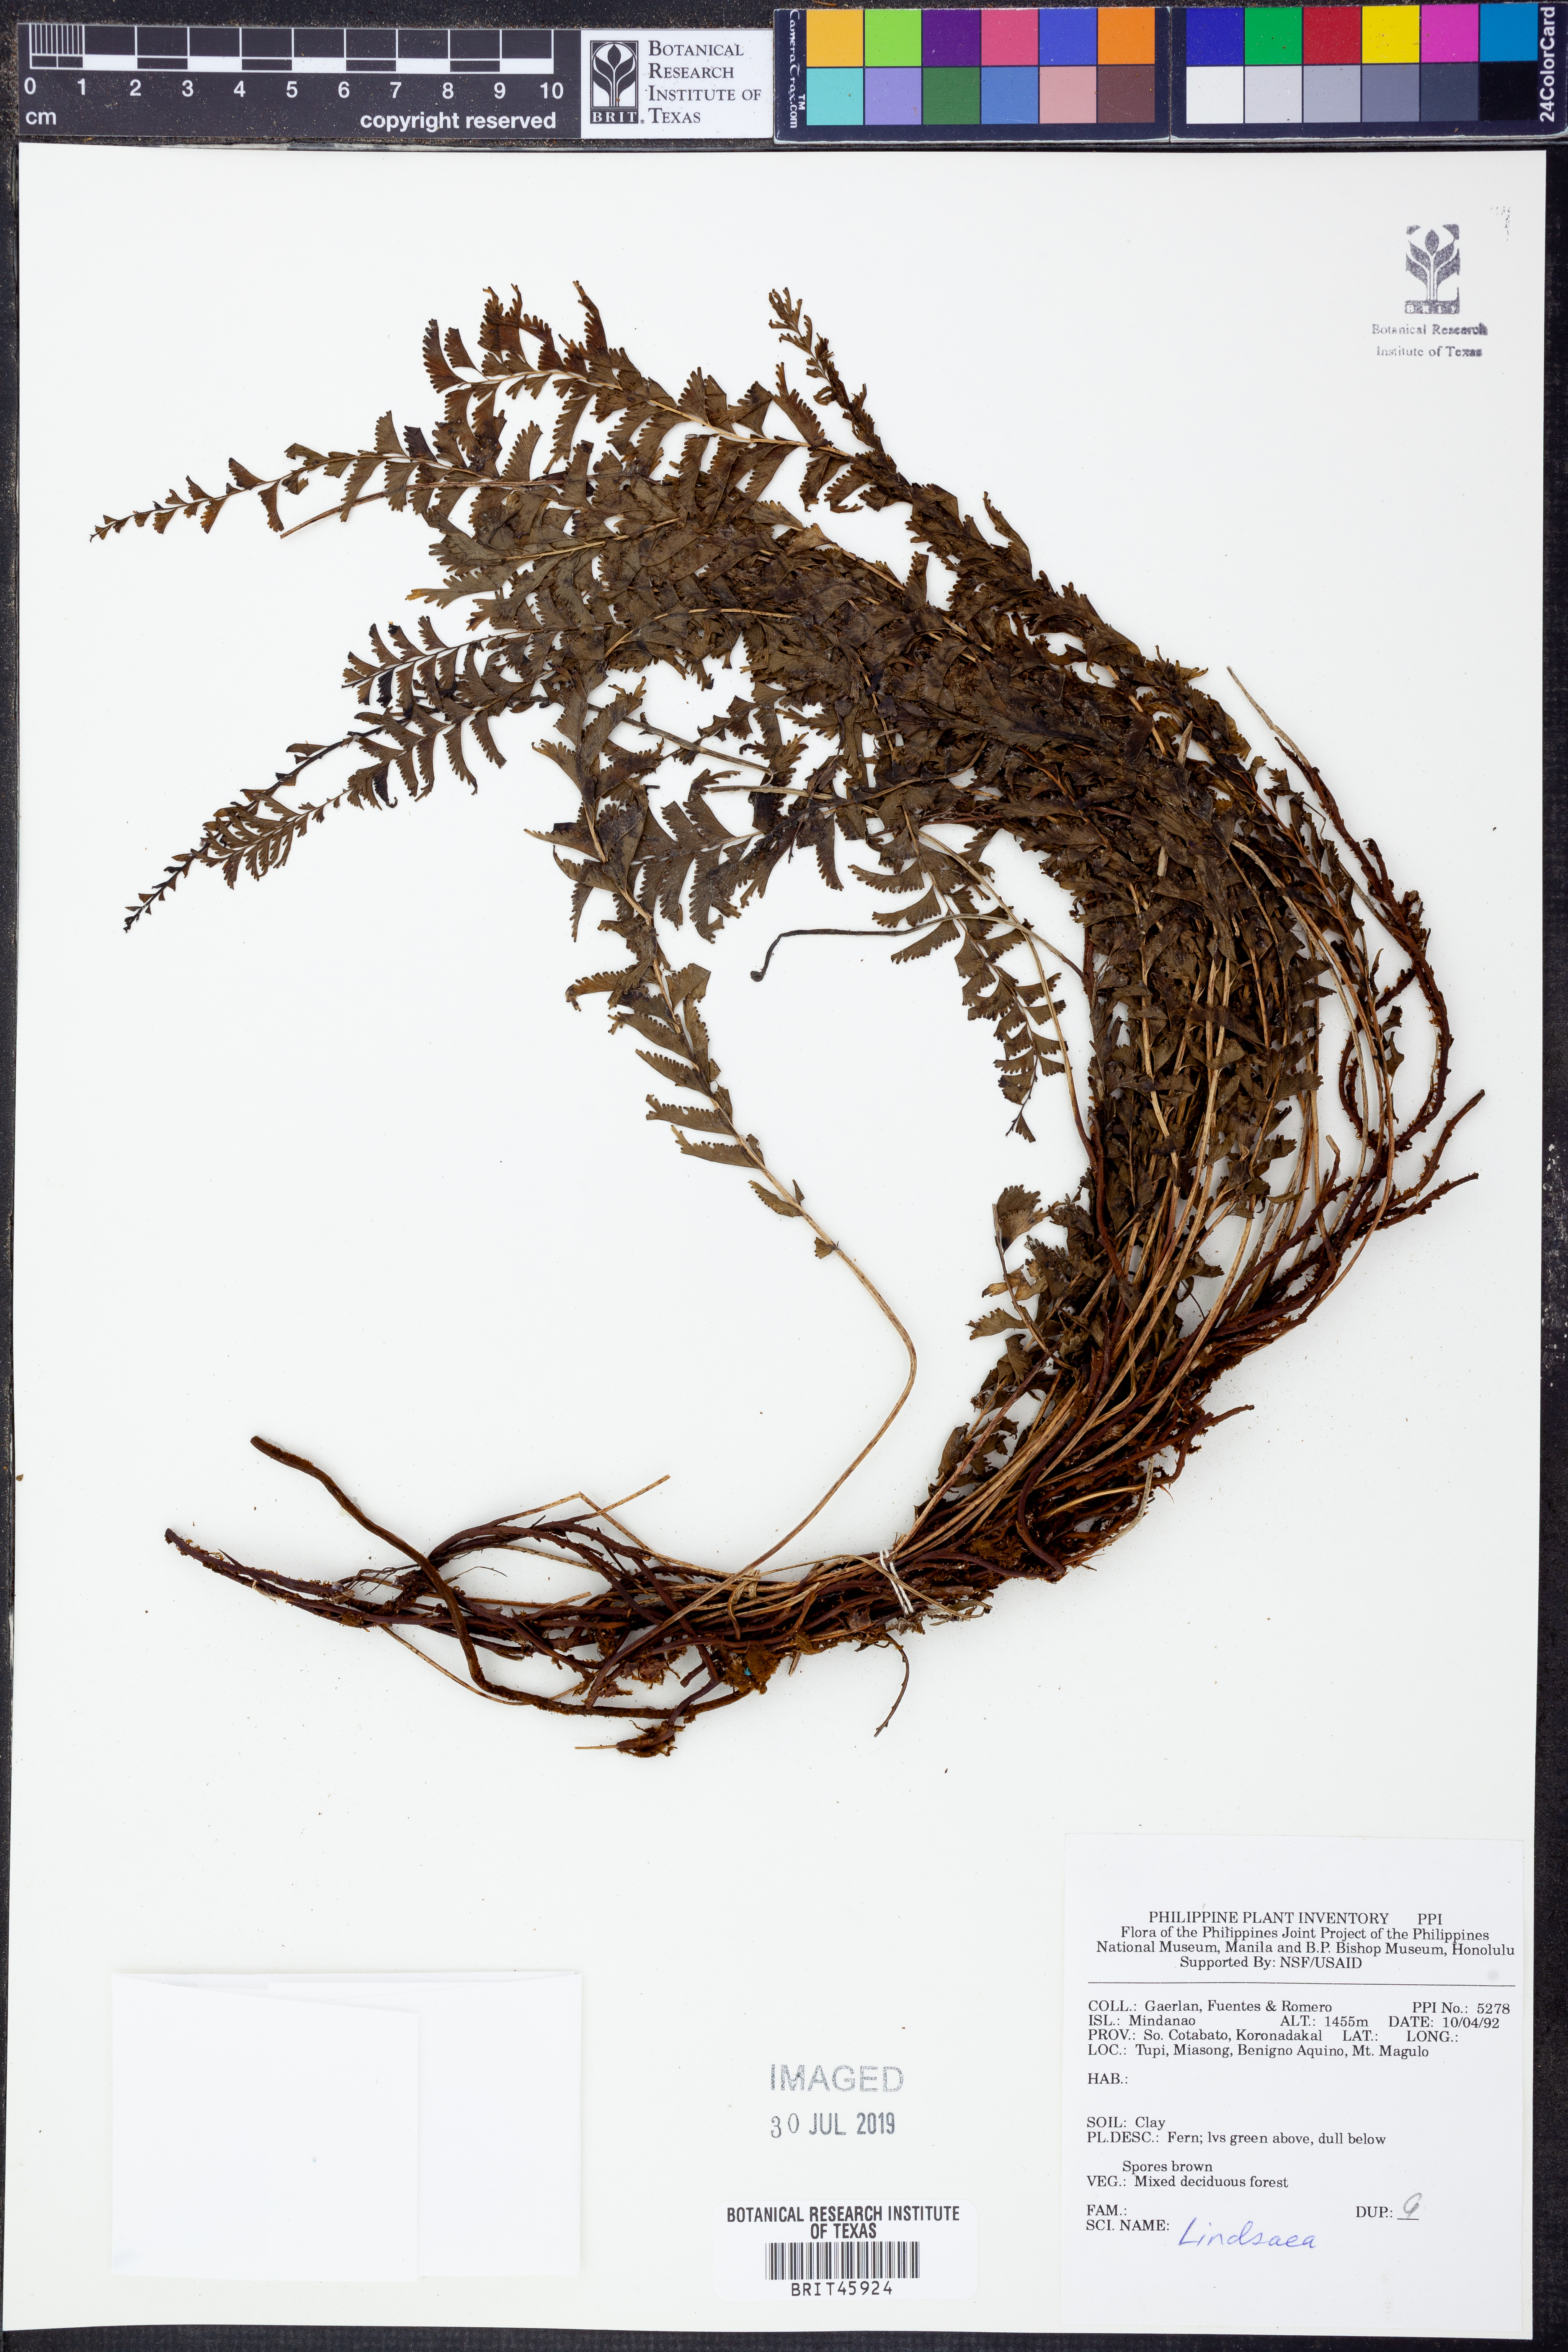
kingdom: Plantae
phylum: Tracheophyta
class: Polypodiopsida
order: Polypodiales
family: Lindsaeaceae
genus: Lindsaea
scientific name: Lindsaea
